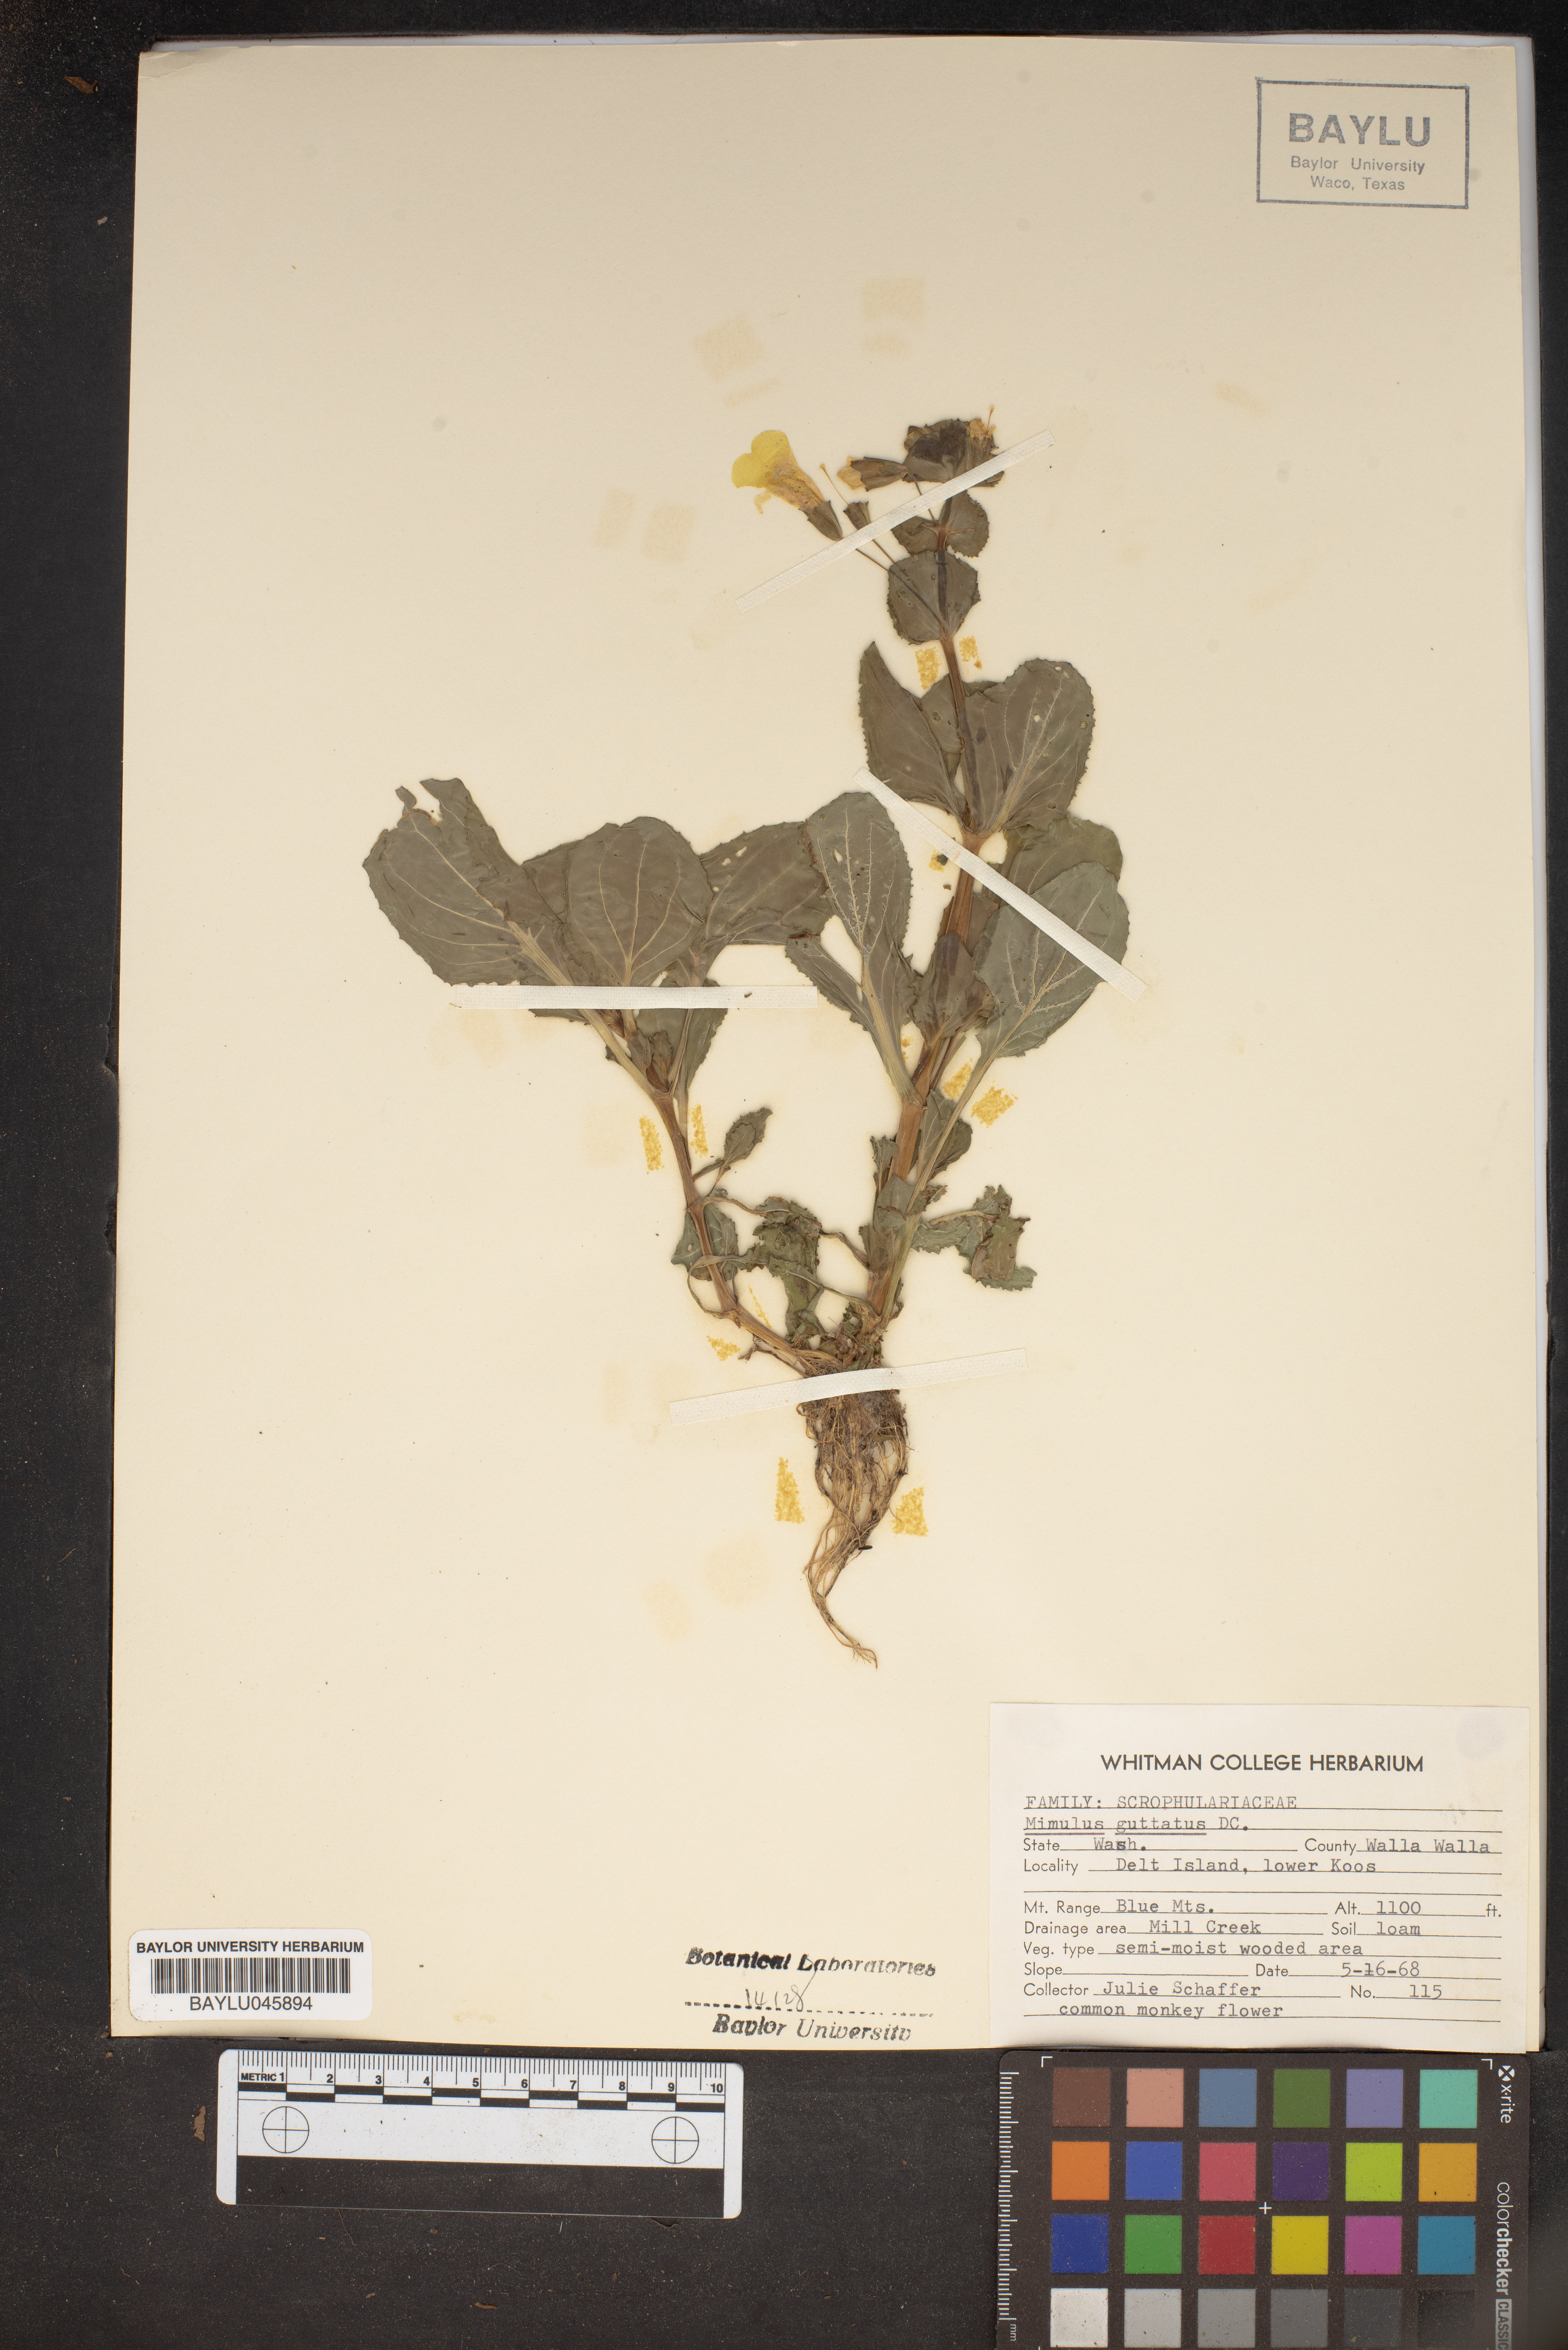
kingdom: Plantae
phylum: Tracheophyta
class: Magnoliopsida
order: Lamiales
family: Phrymaceae
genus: Erythranthe
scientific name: Erythranthe guttata
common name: Monkeyflower
